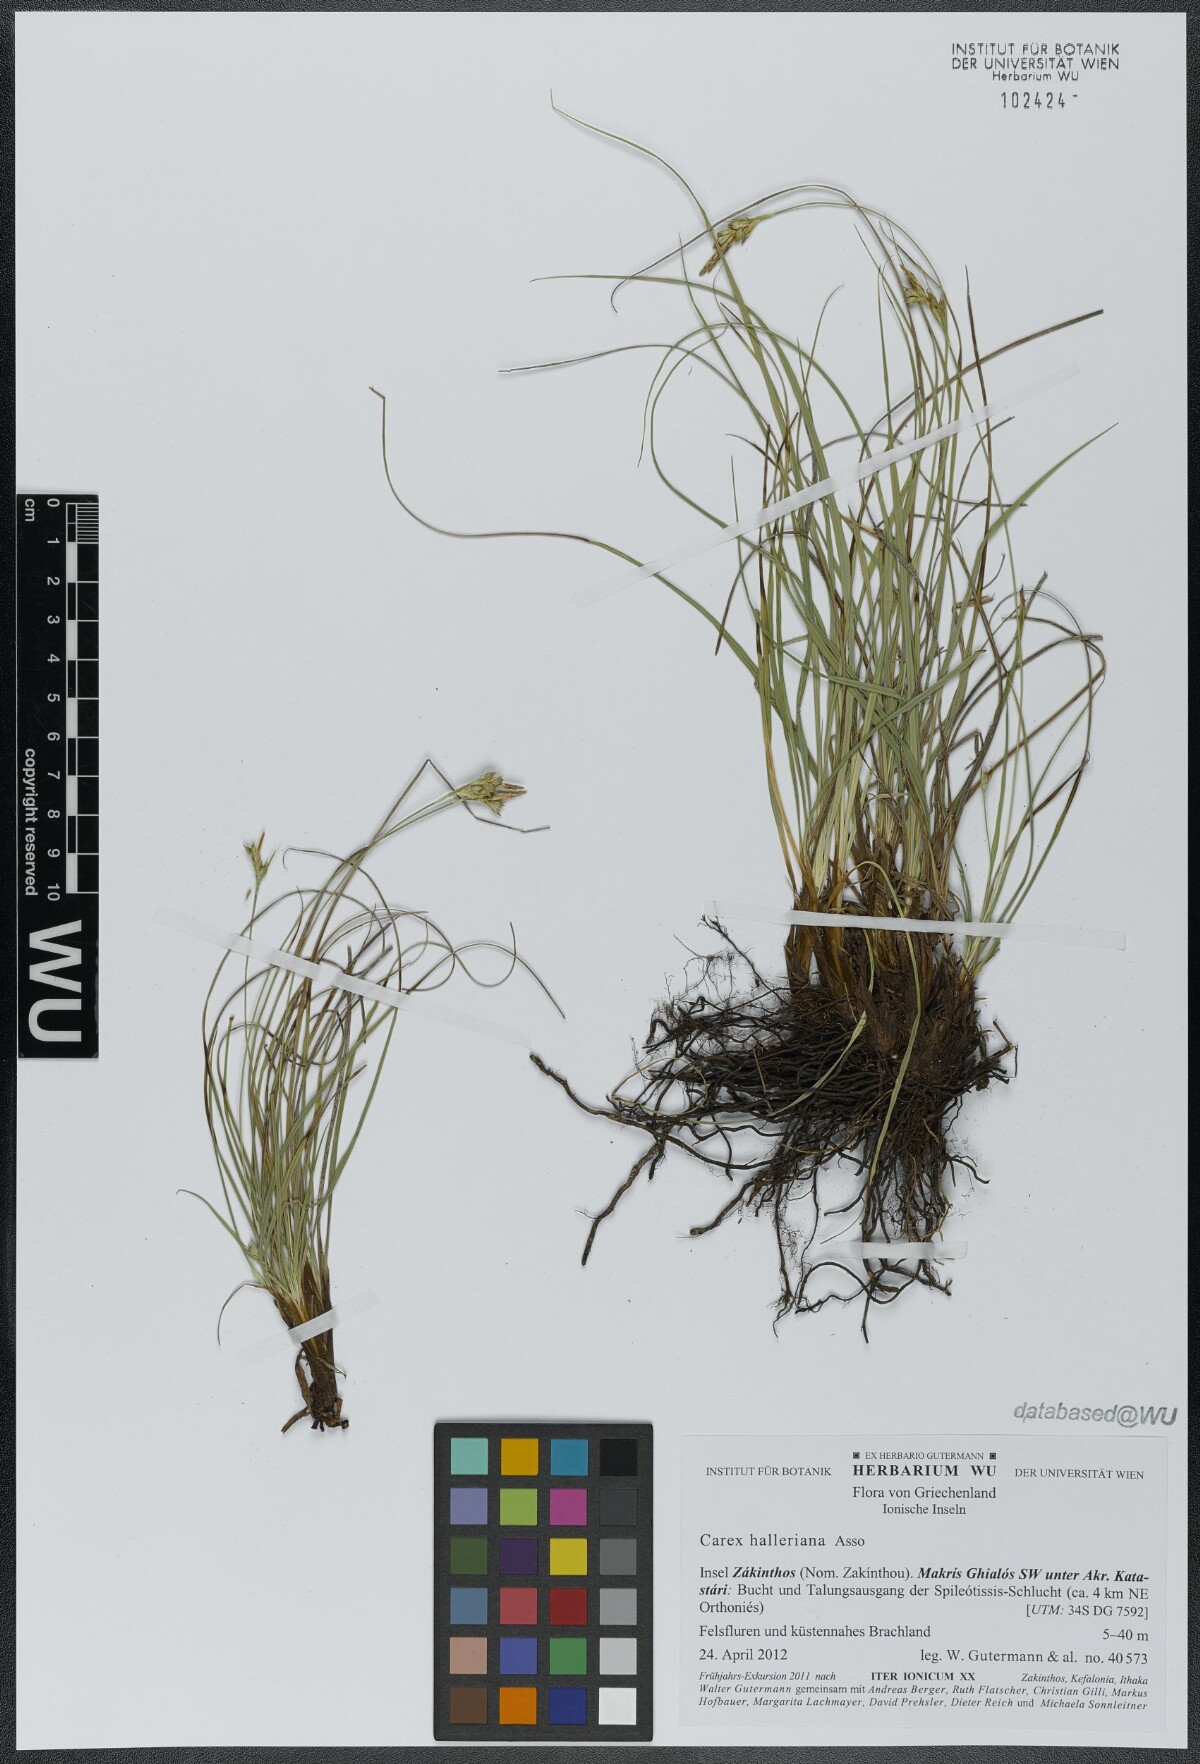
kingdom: Plantae
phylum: Tracheophyta
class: Liliopsida
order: Poales
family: Cyperaceae
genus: Carex
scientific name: Carex halleriana
